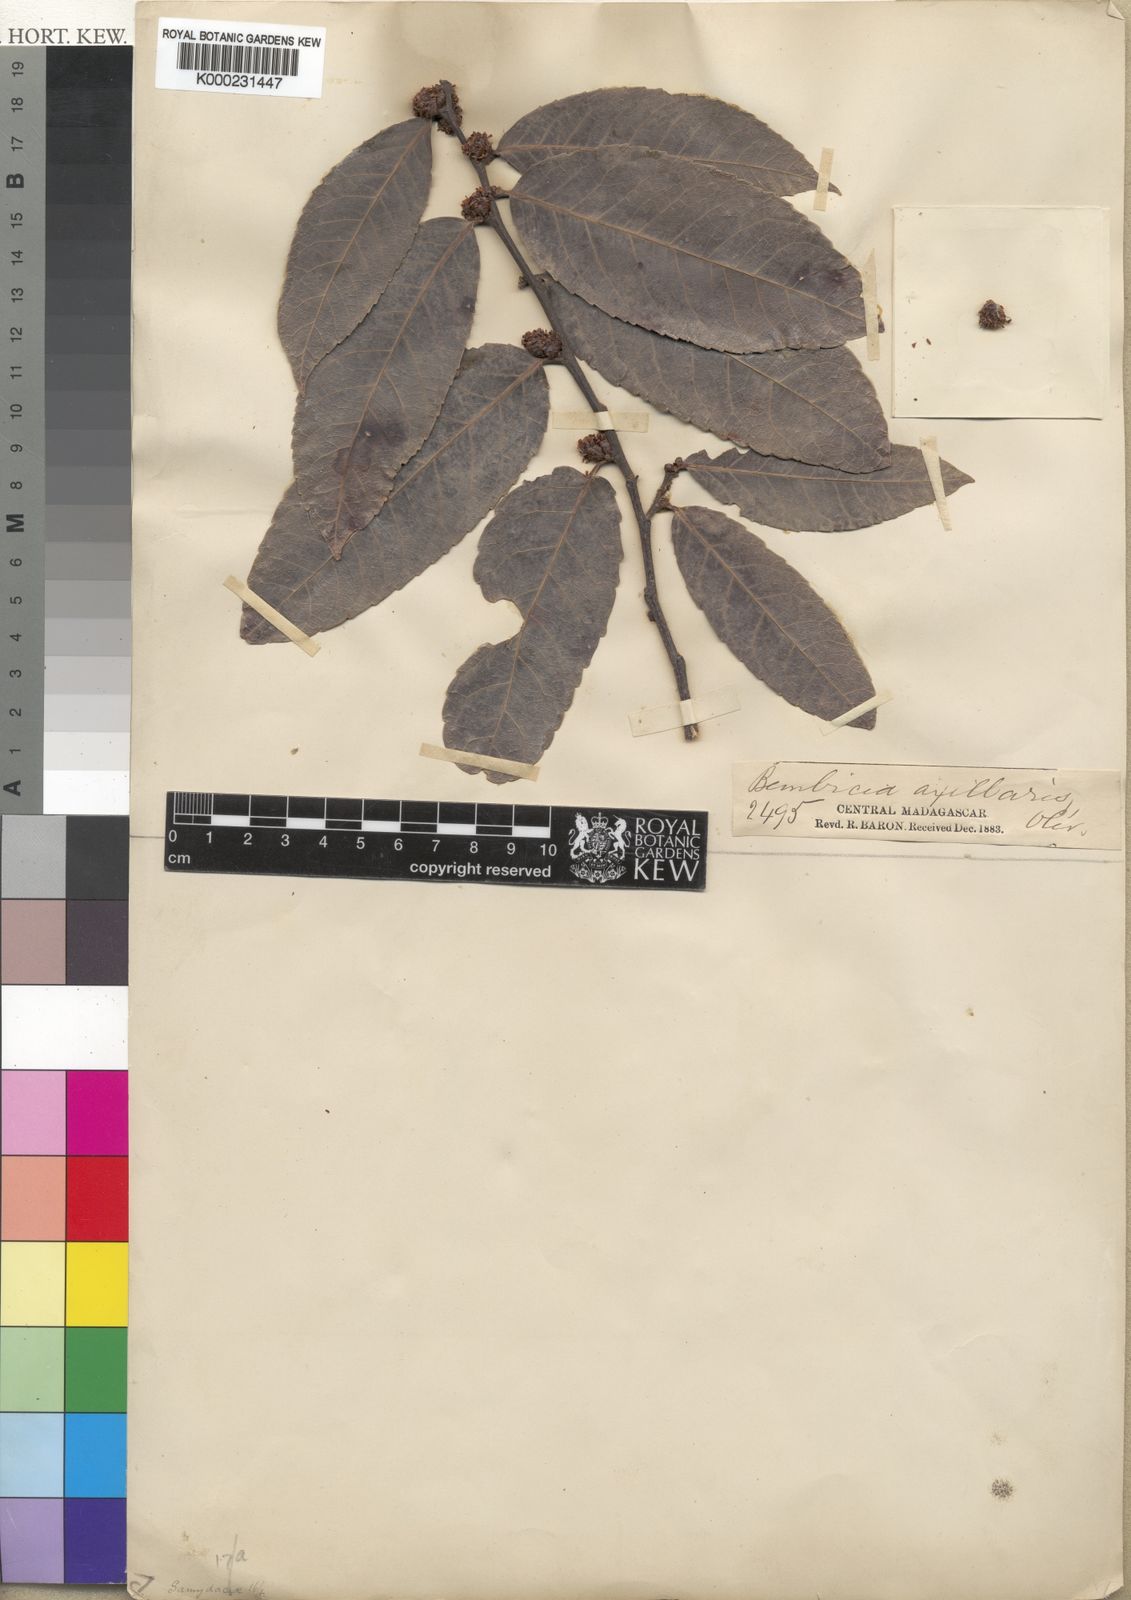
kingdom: Plantae
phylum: Tracheophyta
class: Magnoliopsida
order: Malpighiales
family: Salicaceae
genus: Bembicia
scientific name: Bembicia
